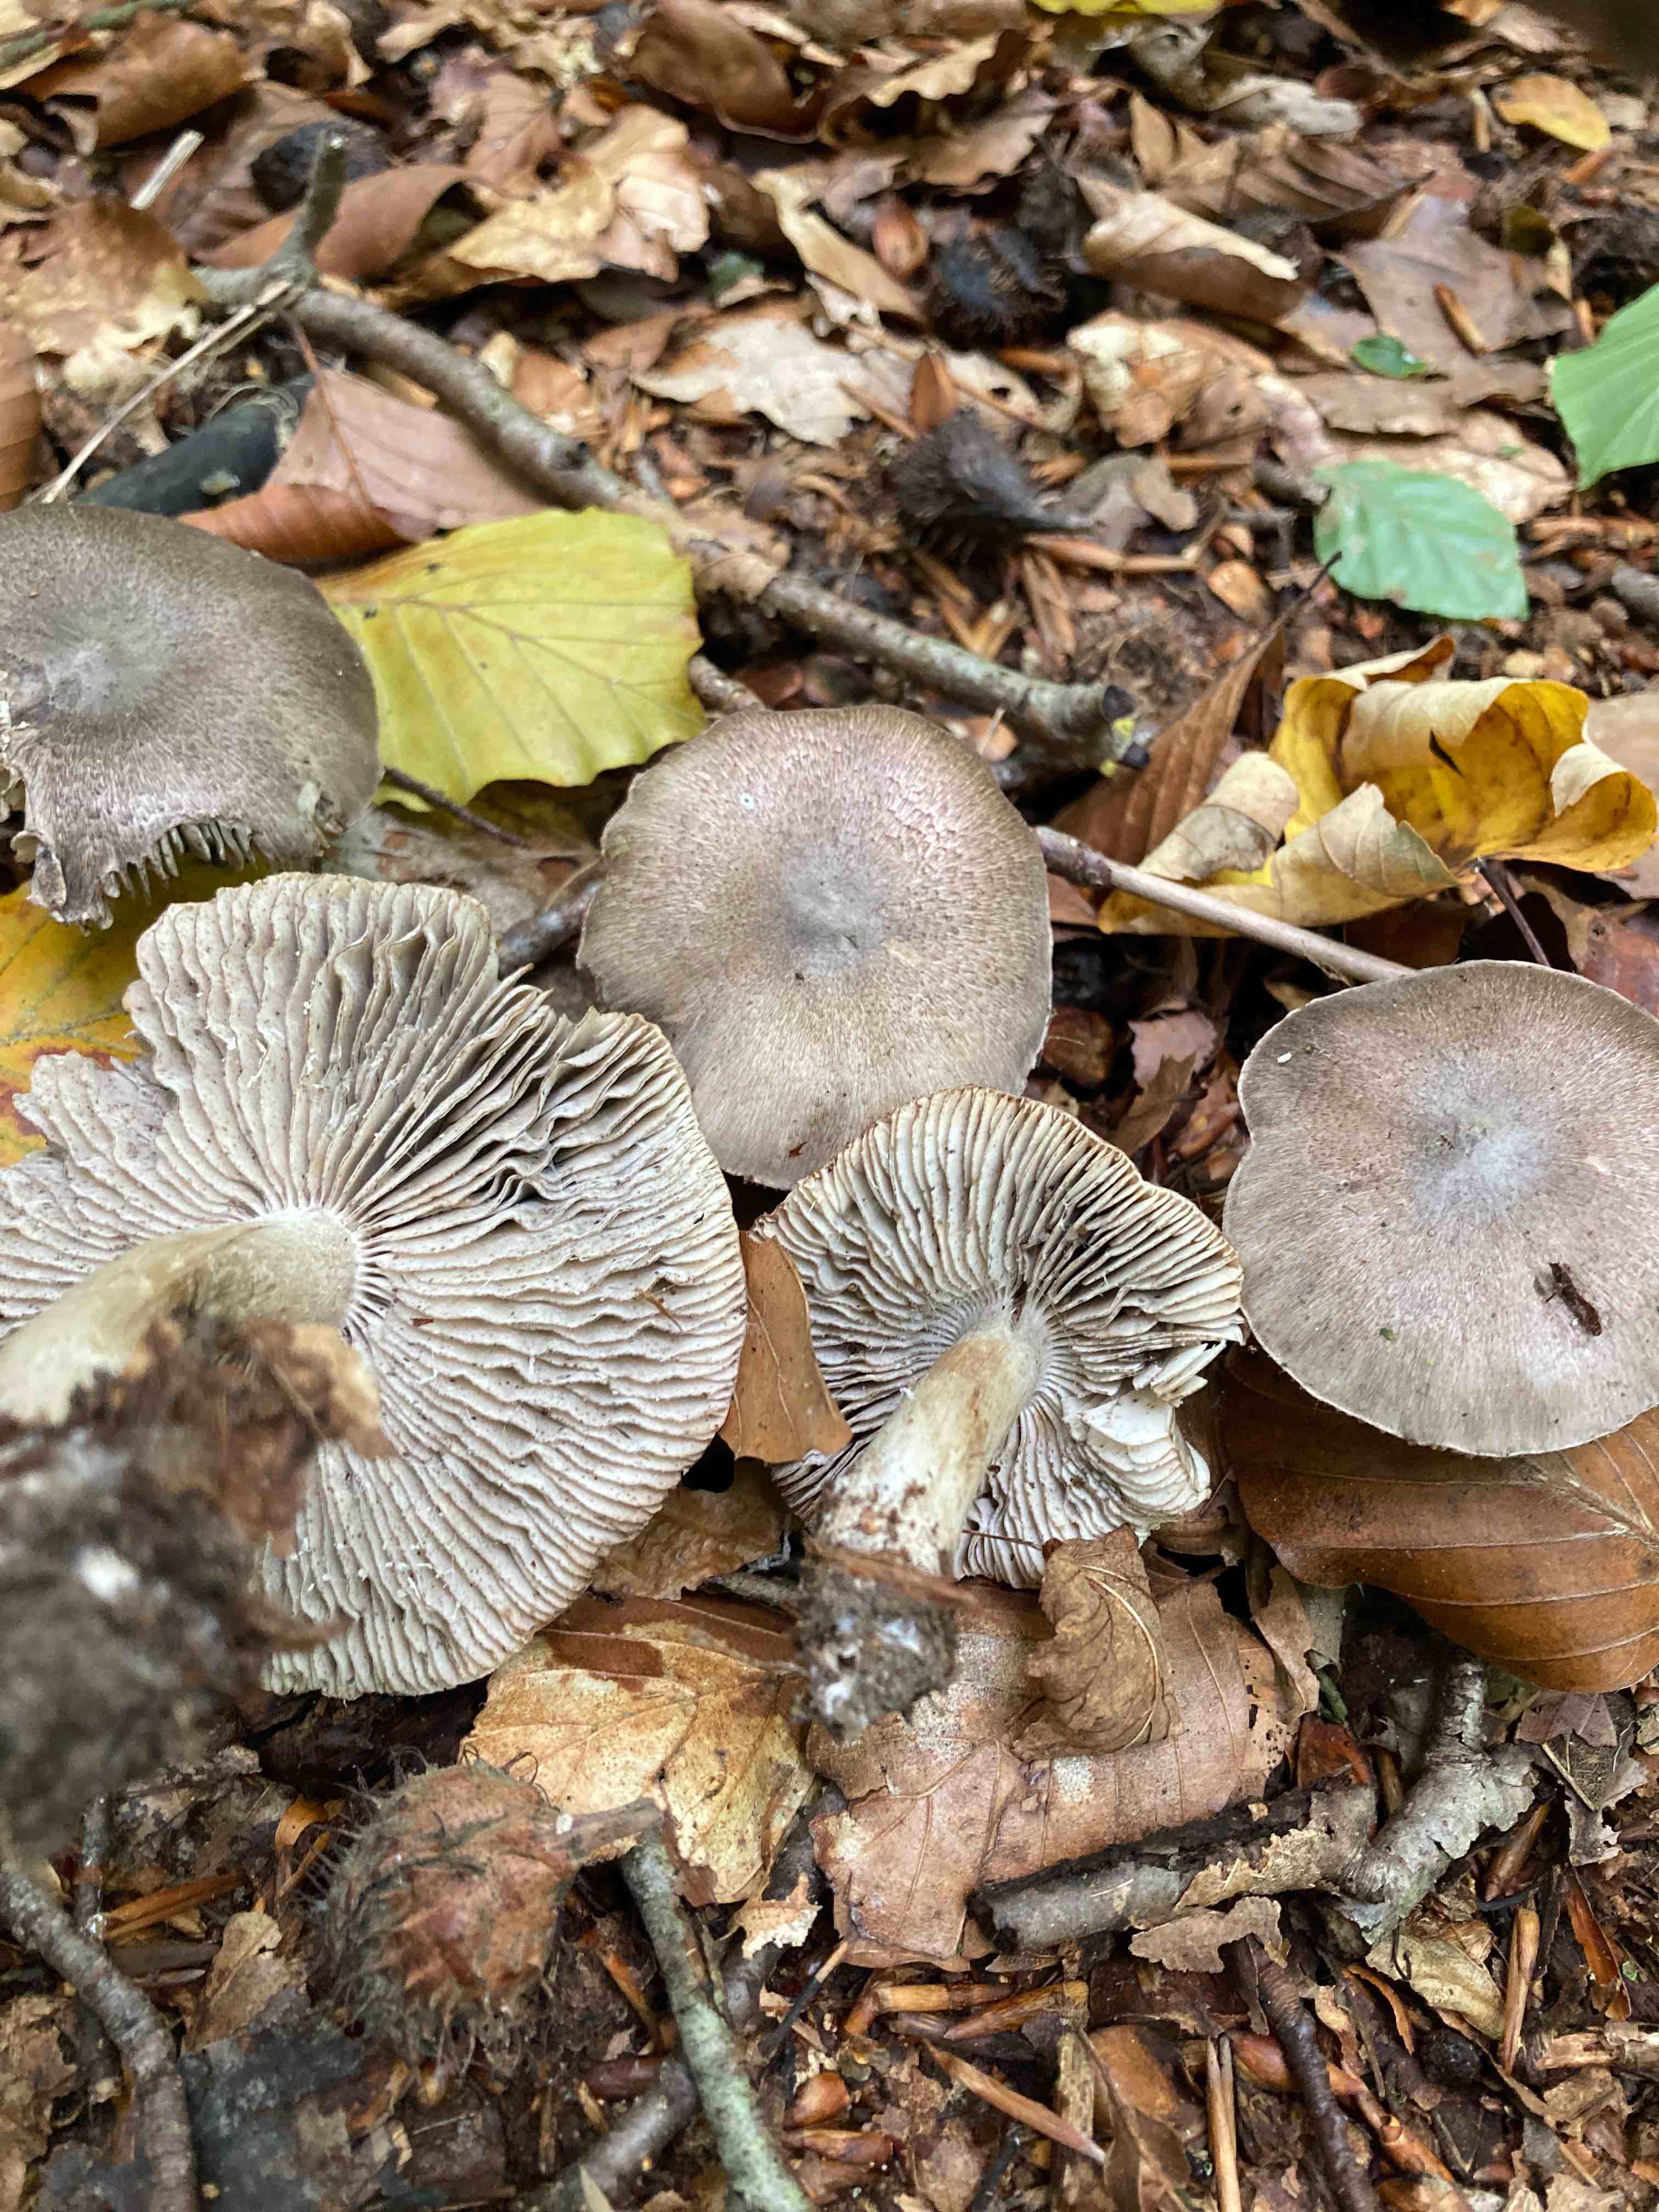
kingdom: Fungi
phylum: Basidiomycota
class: Agaricomycetes
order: Agaricales
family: Tricholomataceae
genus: Tricholoma
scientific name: Tricholoma sciodes
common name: stribet ridderhat
